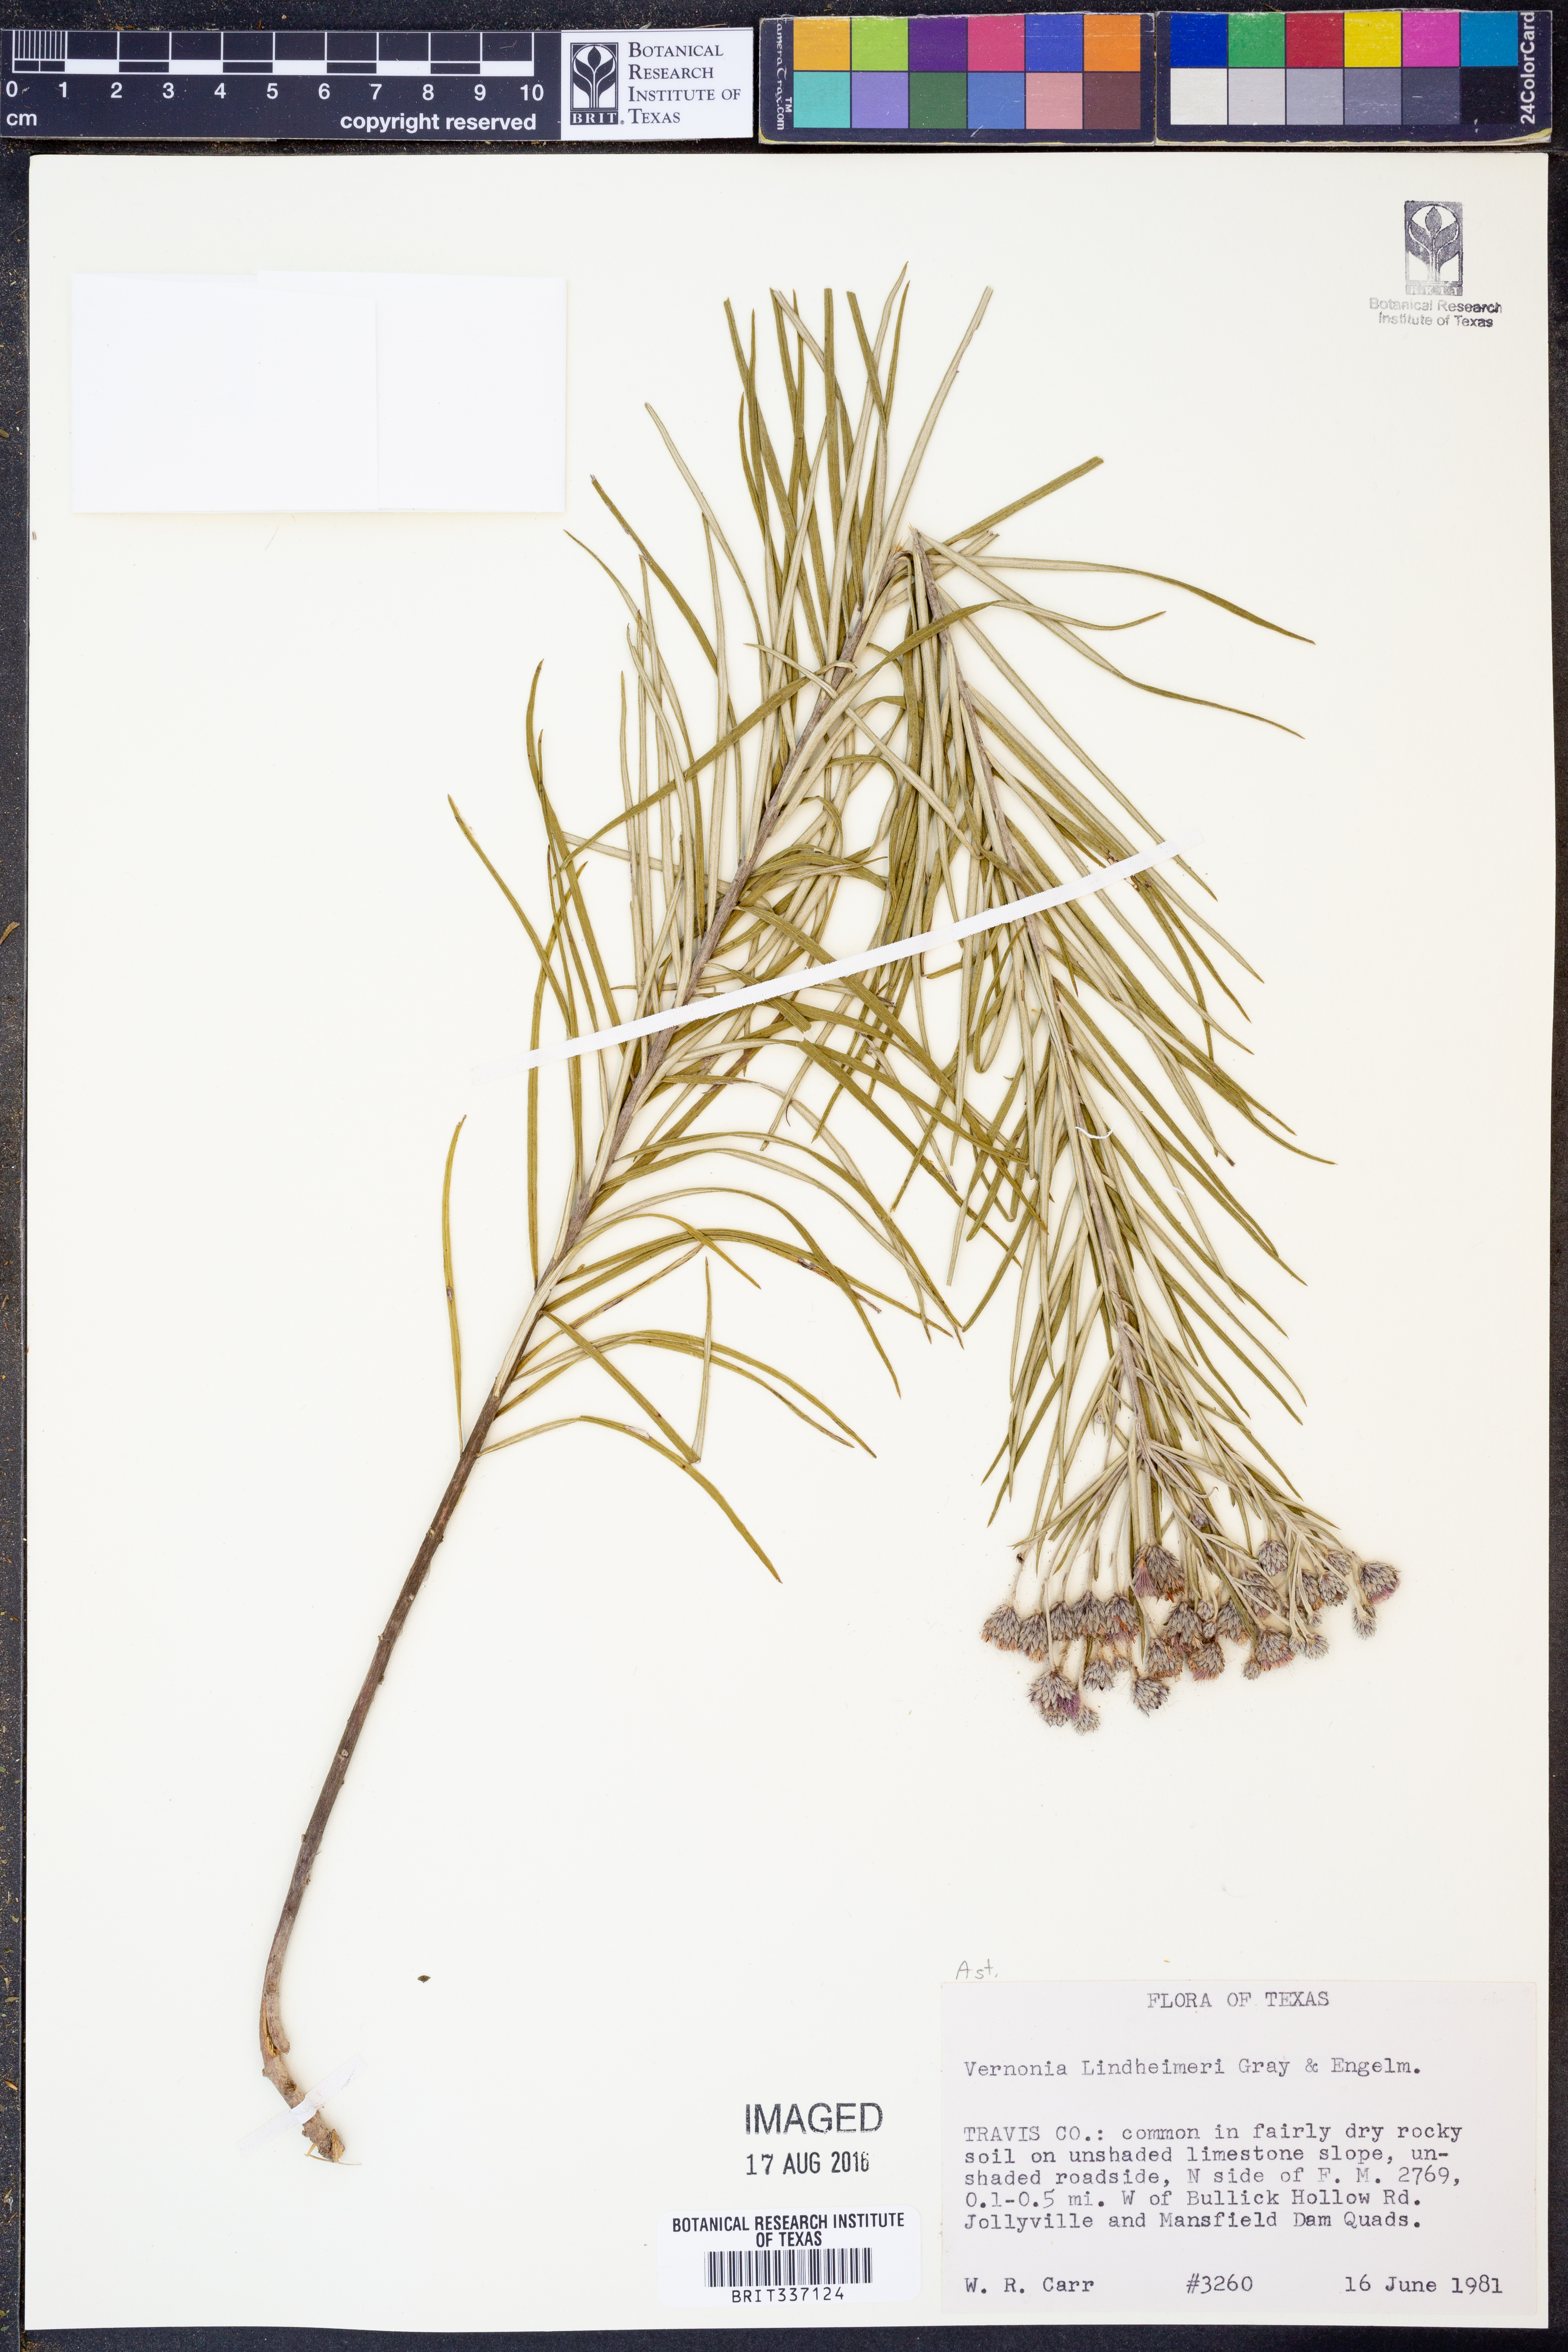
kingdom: Plantae
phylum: Tracheophyta
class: Magnoliopsida
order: Asterales
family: Asteraceae
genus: Vernonia
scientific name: Vernonia lindheimeri
